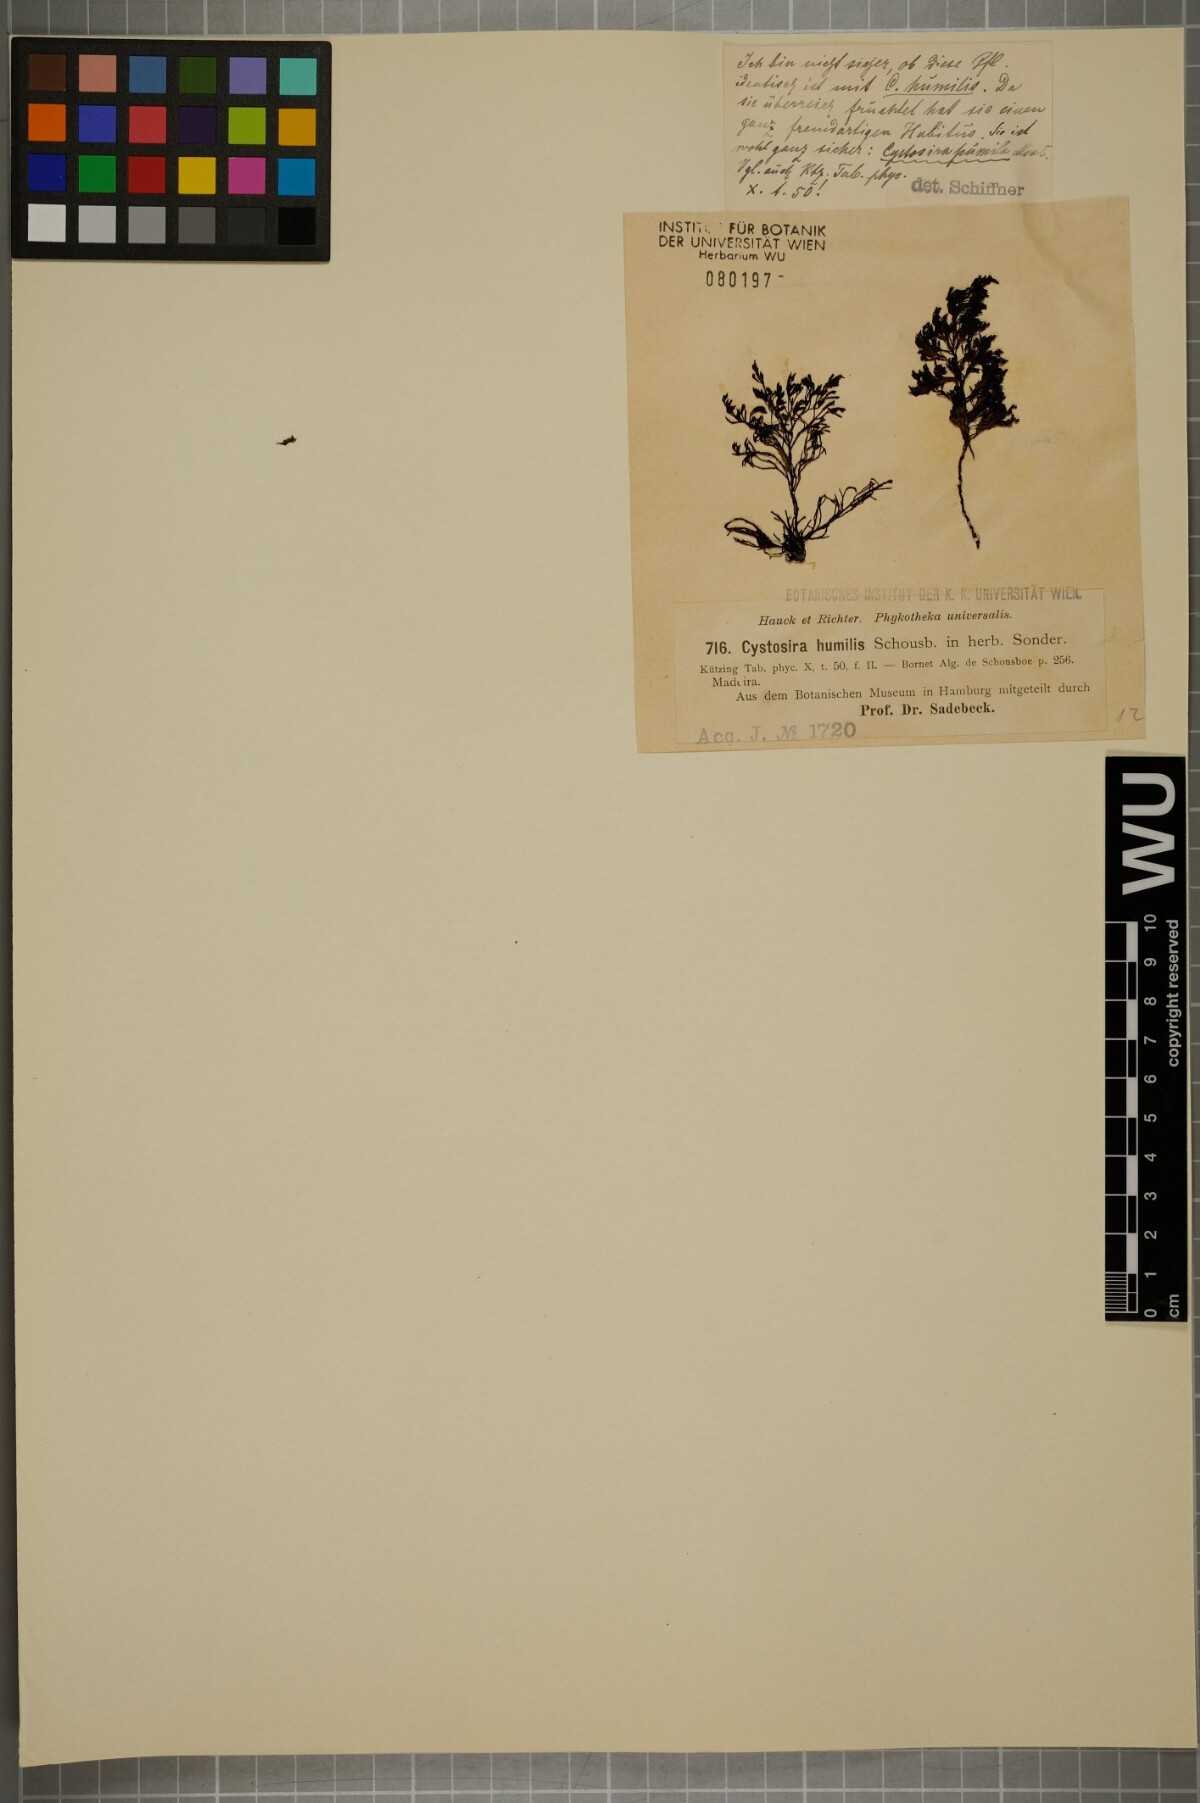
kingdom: Chromista
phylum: Ochrophyta
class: Phaeophyceae
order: Fucales
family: Sargassaceae
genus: Cystoseira
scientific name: Cystoseira humilis
